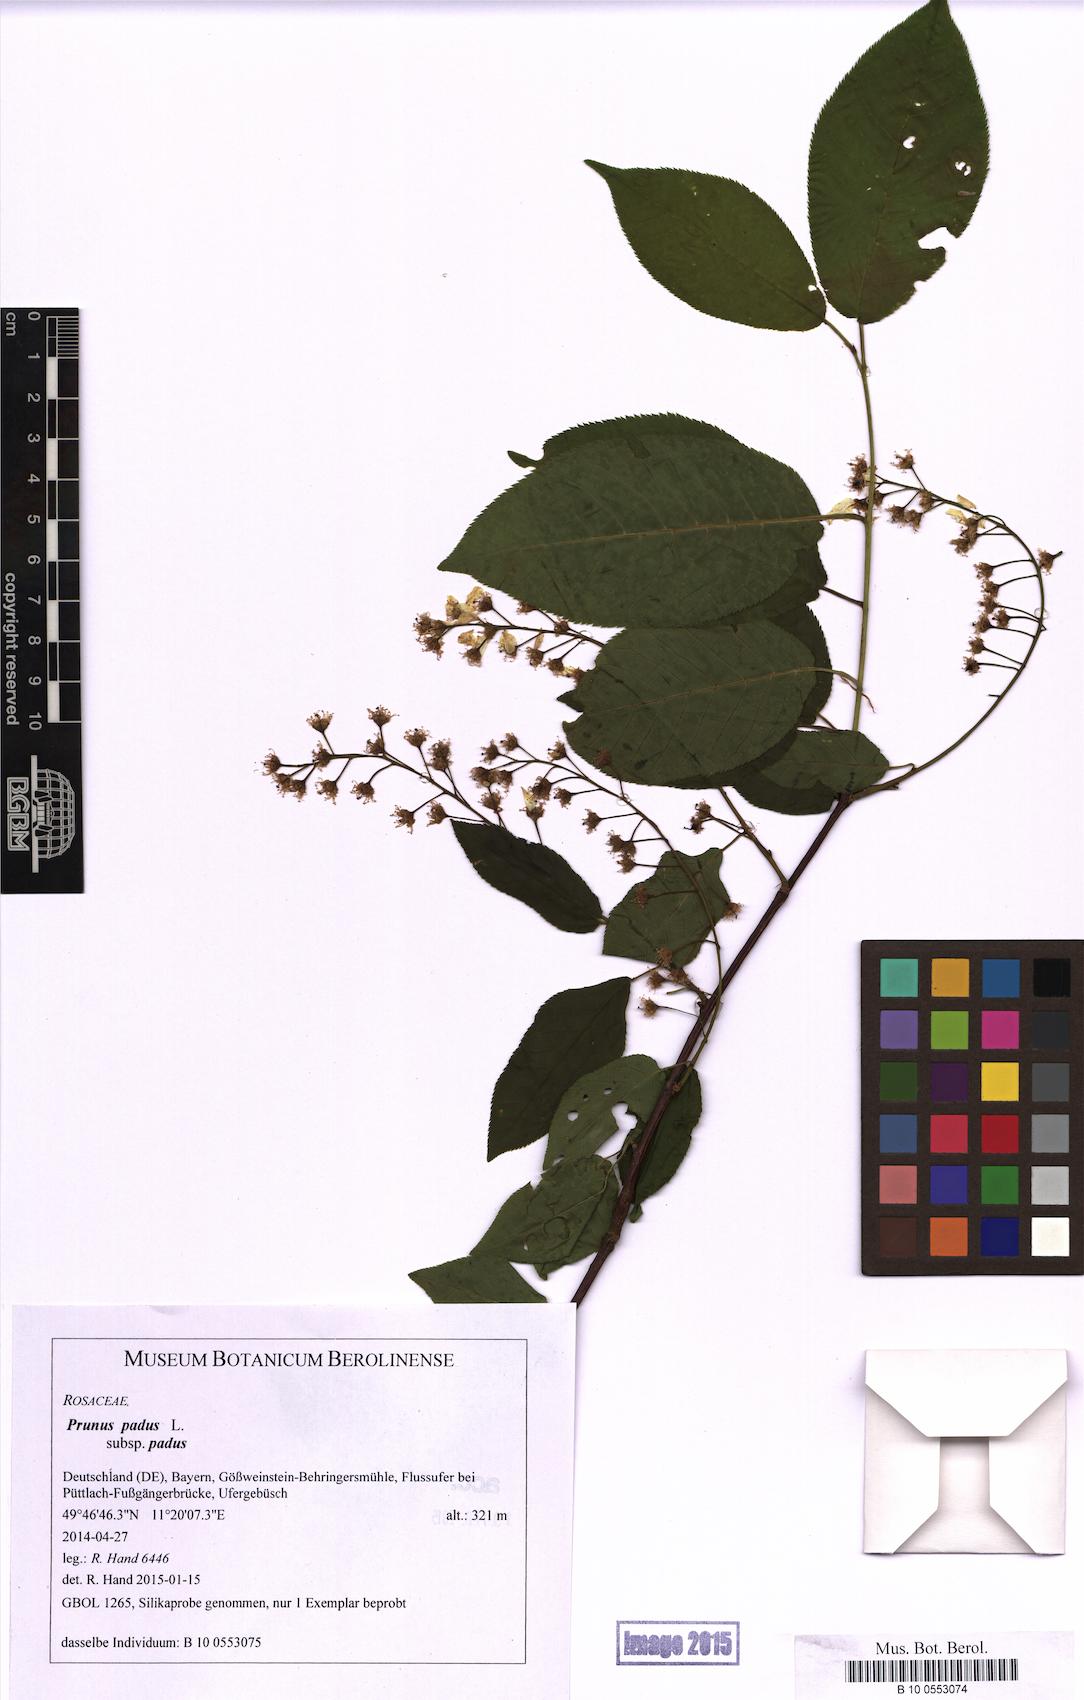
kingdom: Plantae
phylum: Tracheophyta
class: Magnoliopsida
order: Rosales
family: Rosaceae
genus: Prunus
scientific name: Prunus padus
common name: Bird cherry
